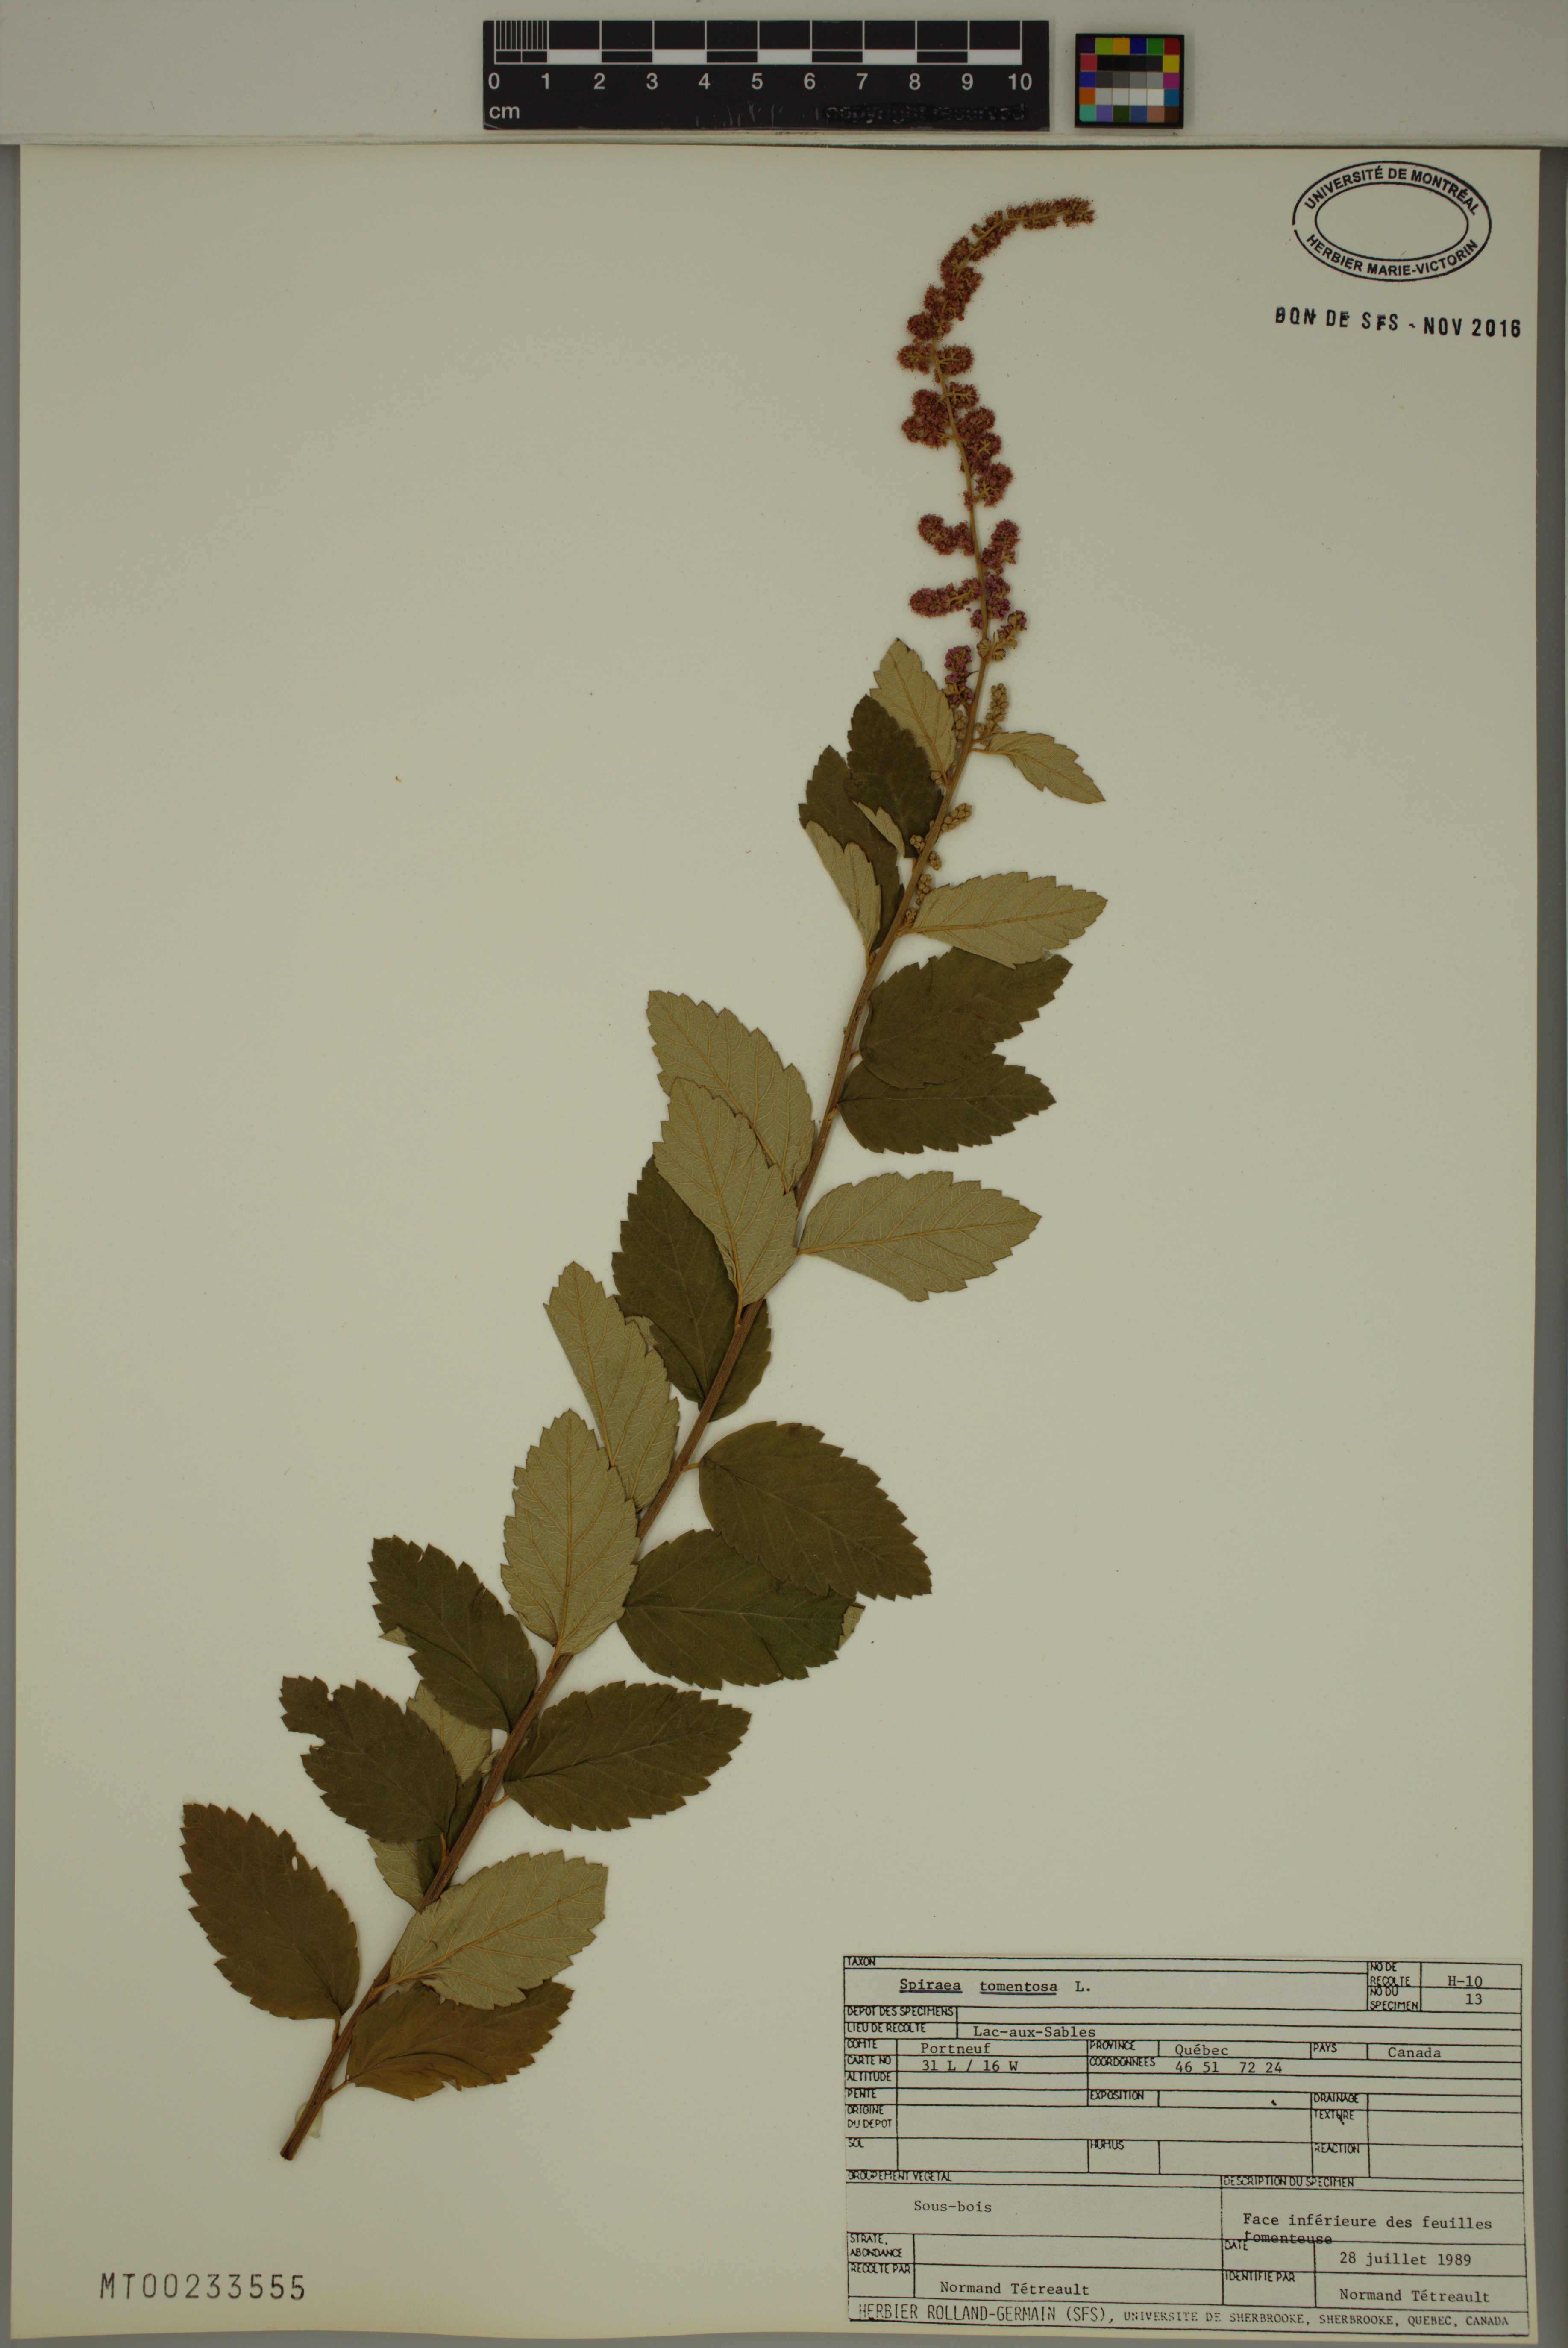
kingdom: Plantae
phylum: Tracheophyta
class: Magnoliopsida
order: Rosales
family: Rosaceae
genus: Spiraea
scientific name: Spiraea tomentosa
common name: Hardhack
